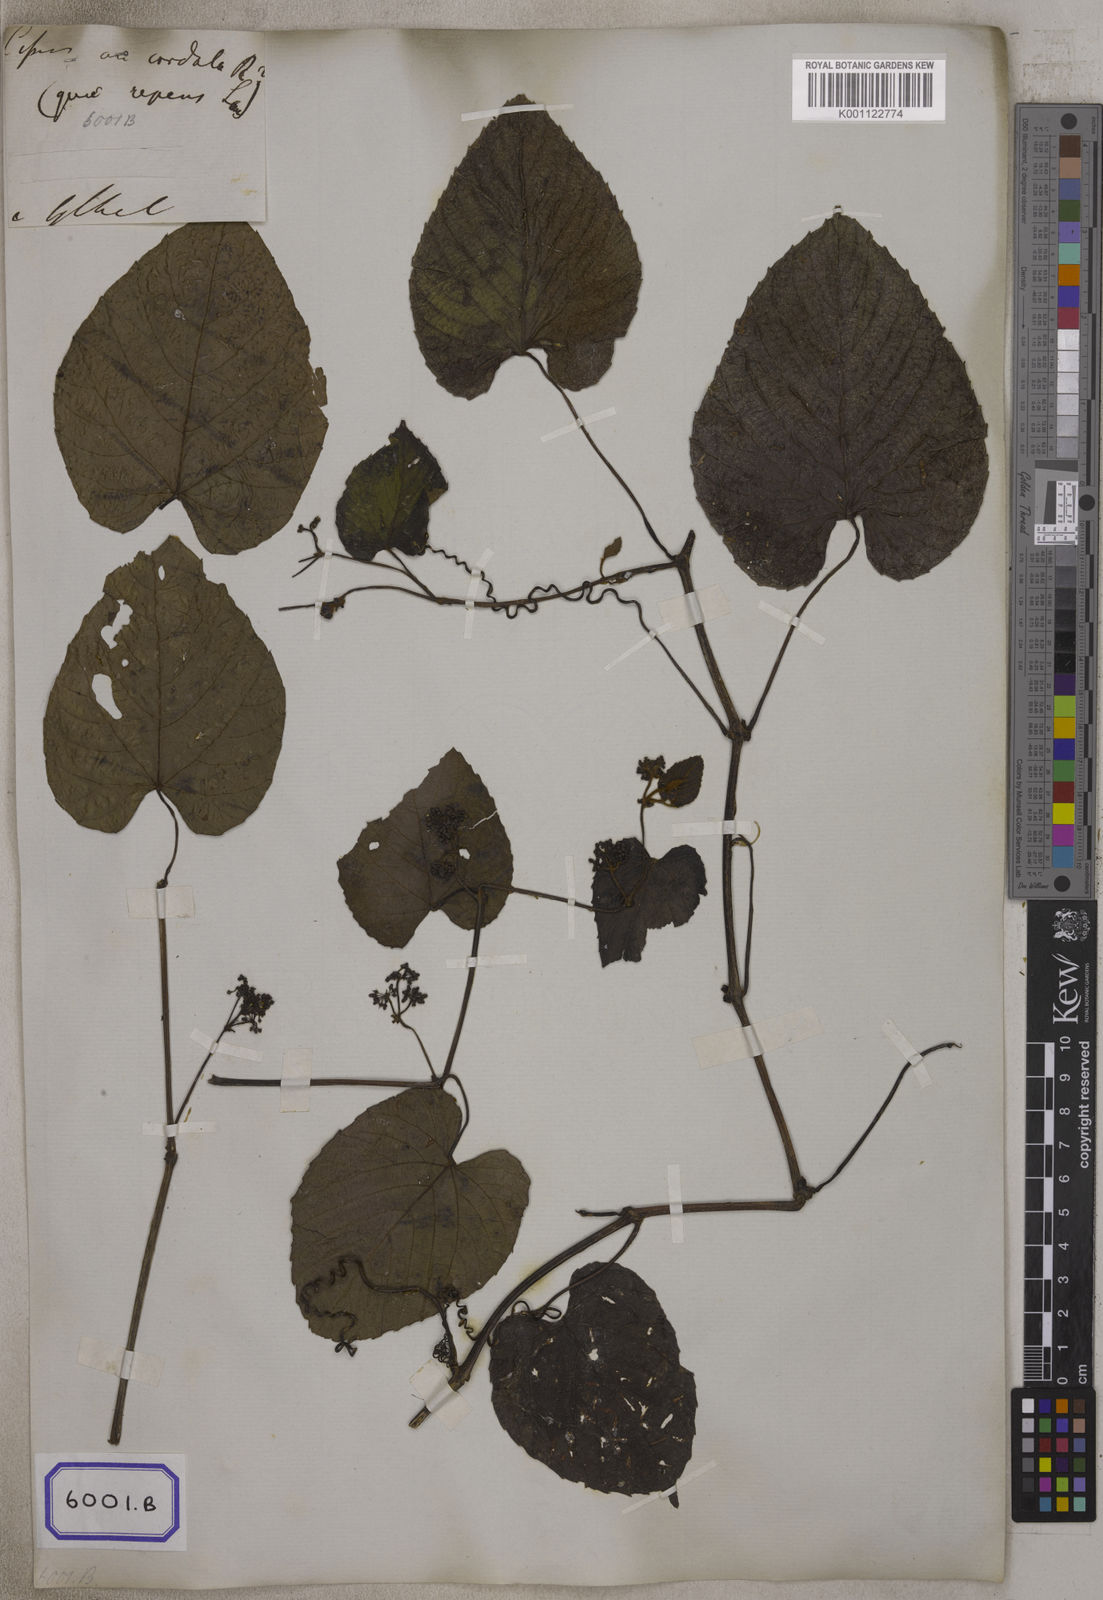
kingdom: Plantae
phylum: Tracheophyta
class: Magnoliopsida
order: Vitales
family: Vitaceae
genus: Cissus
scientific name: Cissus repens
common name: Cissus
